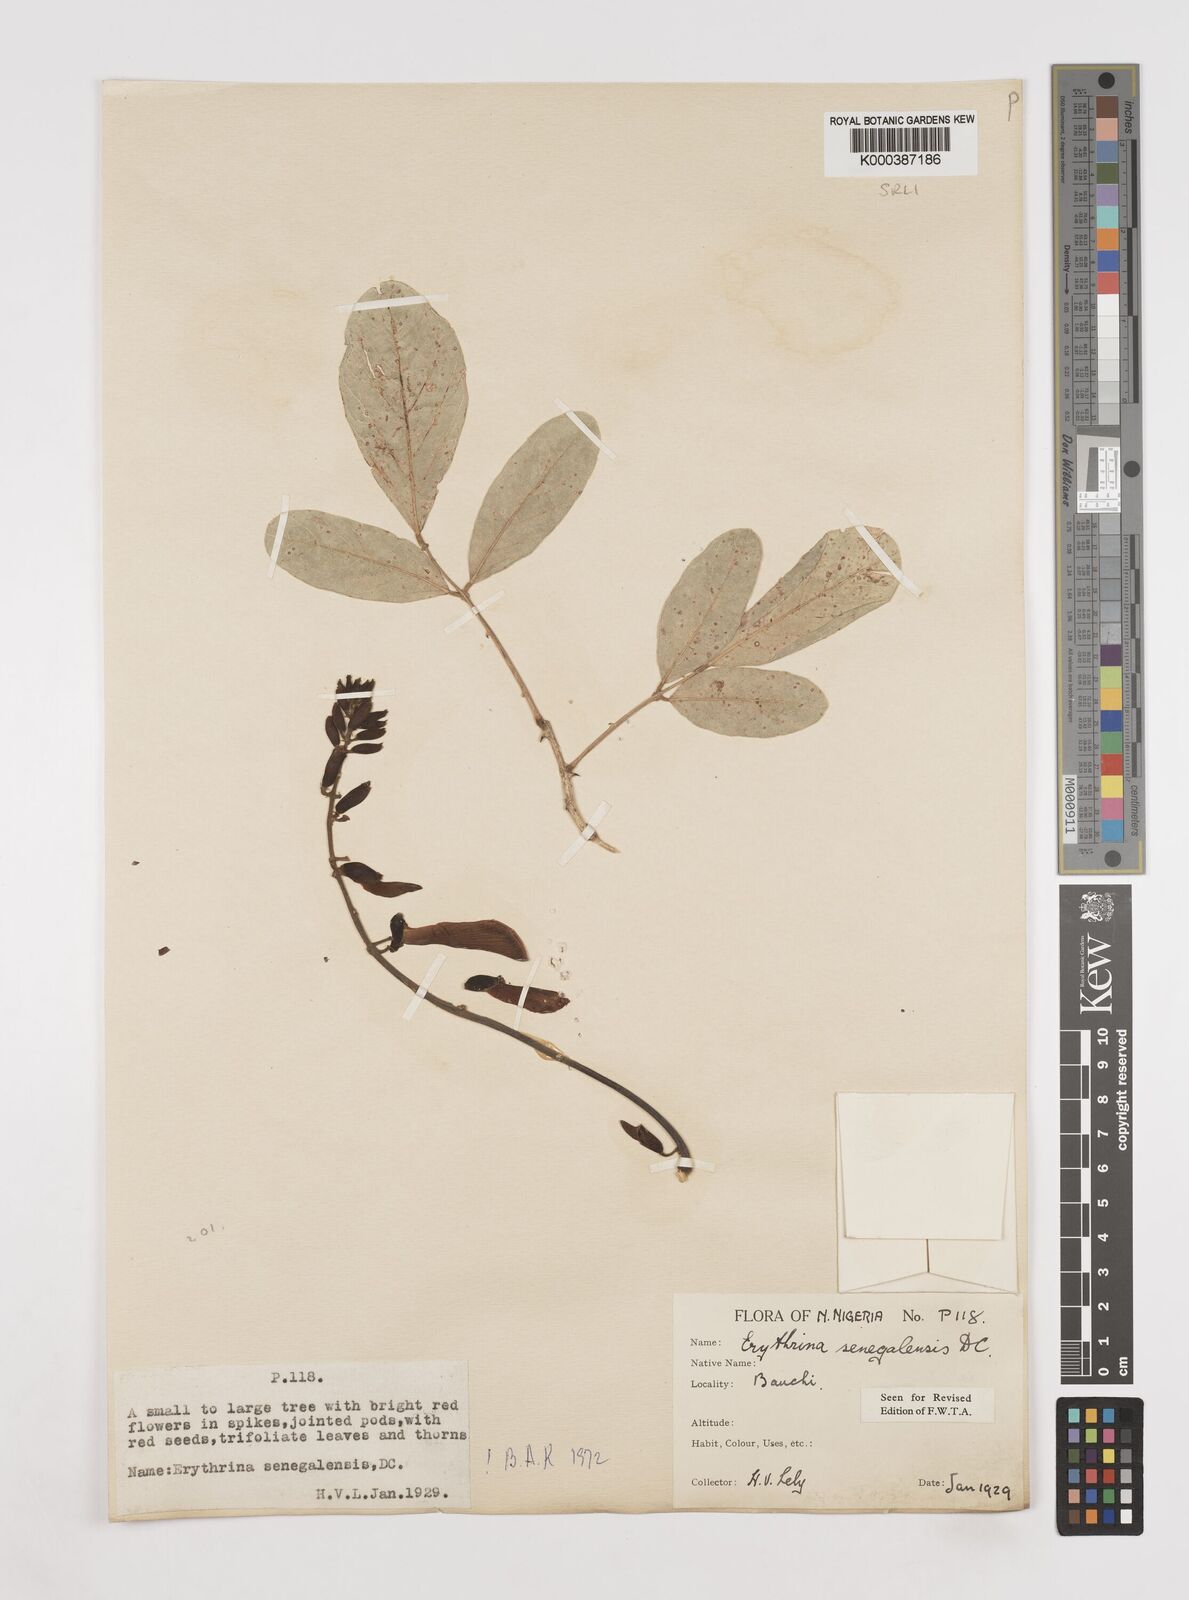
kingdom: Plantae
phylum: Tracheophyta
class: Magnoliopsida
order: Fabales
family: Fabaceae
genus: Erythrina
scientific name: Erythrina senegalensis
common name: Senegal coraltree
